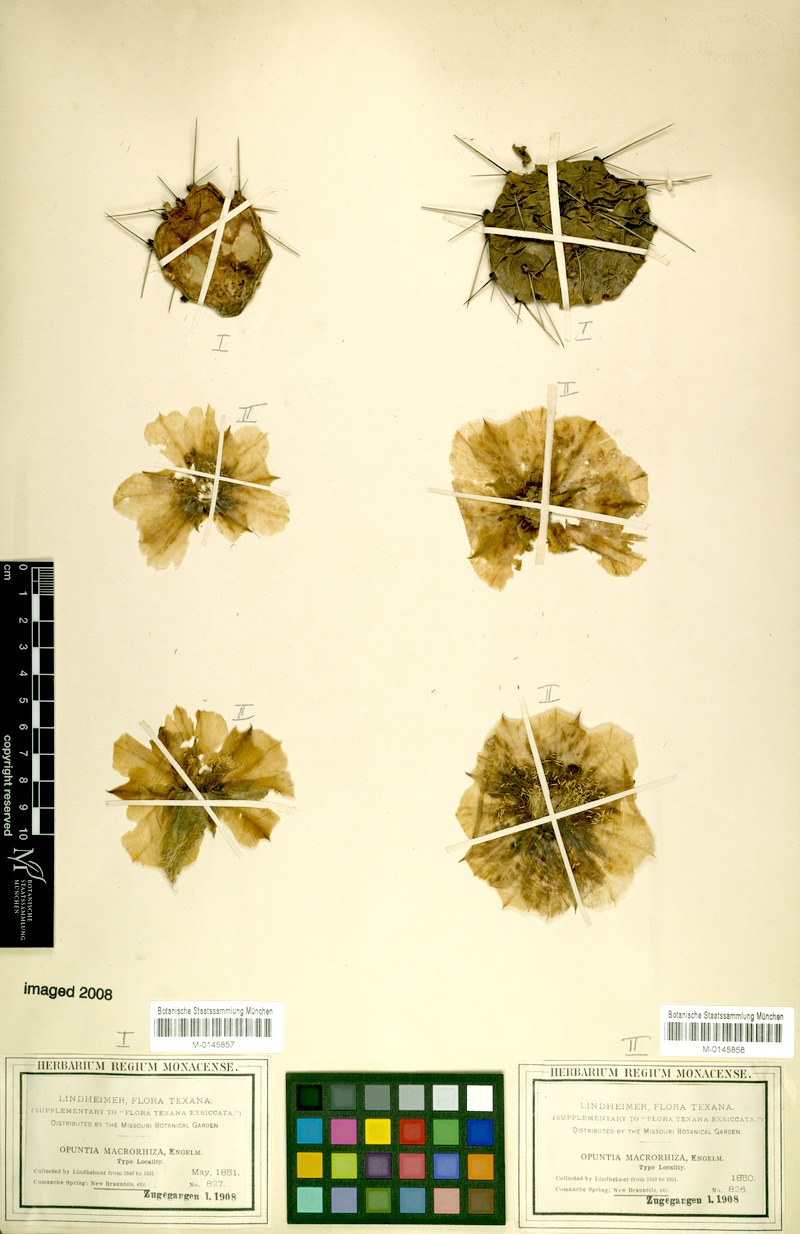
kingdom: Plantae
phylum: Tracheophyta
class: Magnoliopsida
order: Caryophyllales
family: Cactaceae
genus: Opuntia
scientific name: Opuntia macrorhiza
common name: Grassland pricklypear
